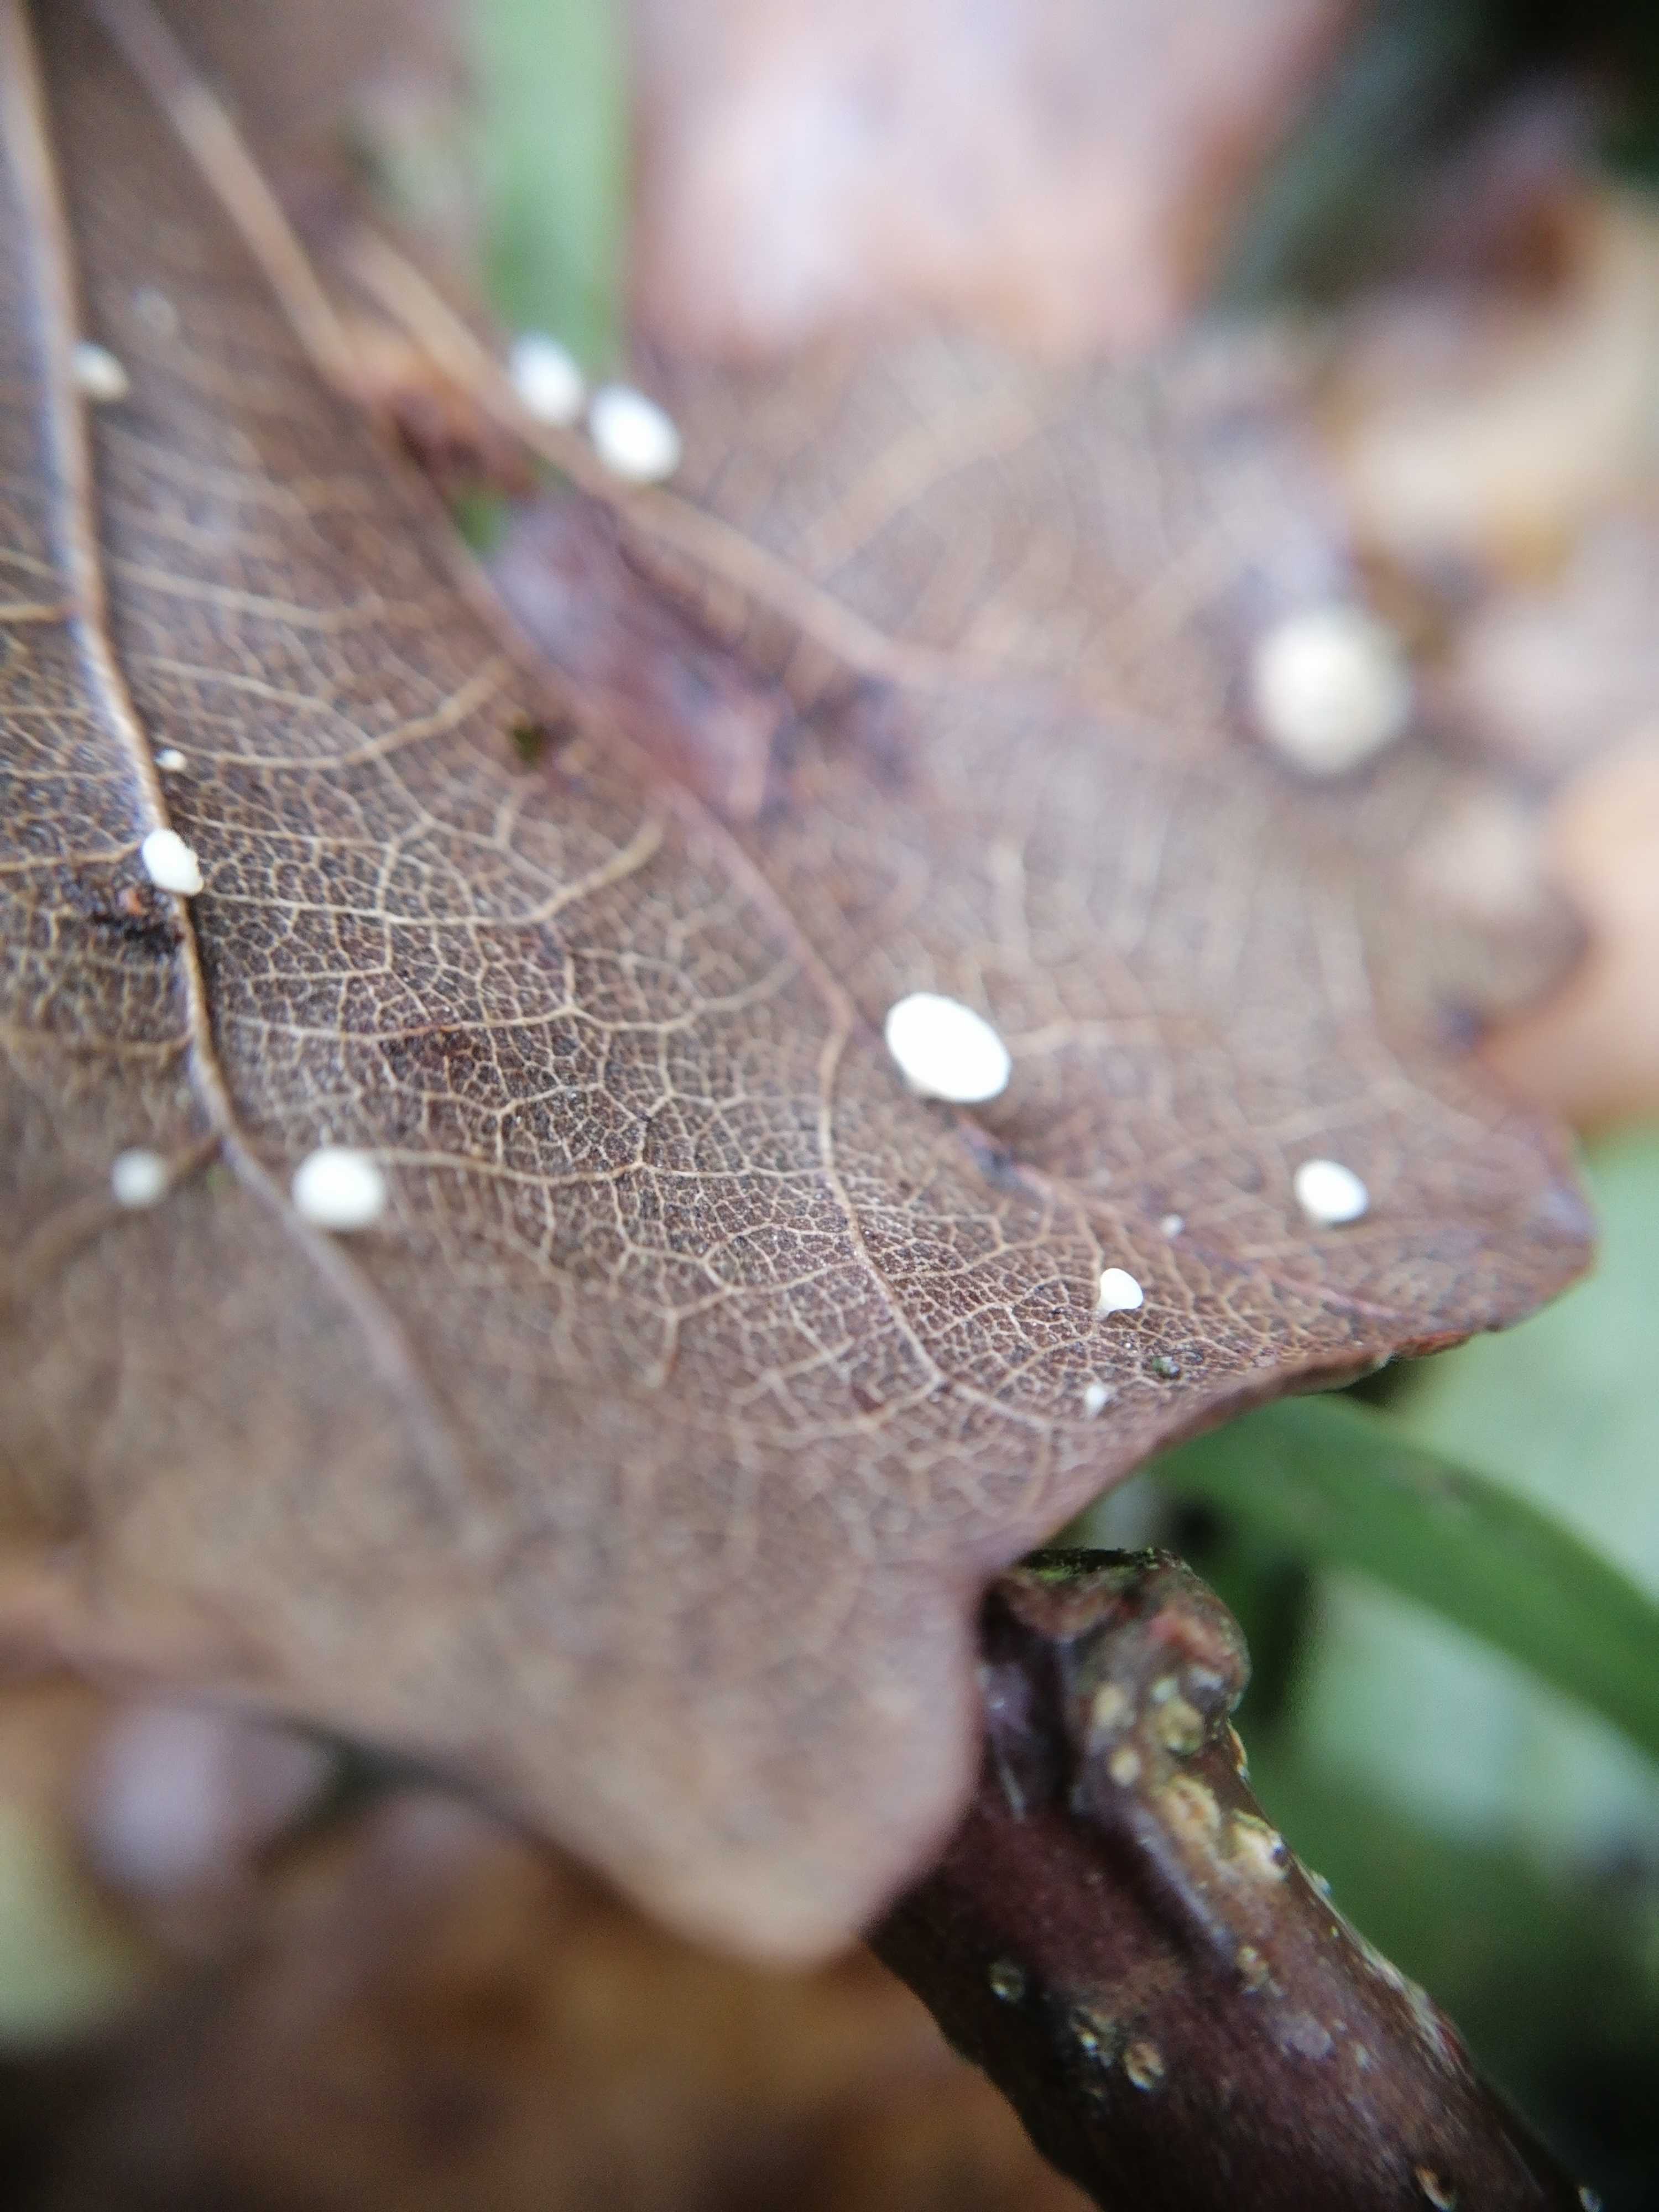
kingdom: Fungi
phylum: Ascomycota
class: Leotiomycetes
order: Helotiales
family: Helotiaceae
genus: Hymenoscyphus
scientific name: Hymenoscyphus
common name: stilkskive
